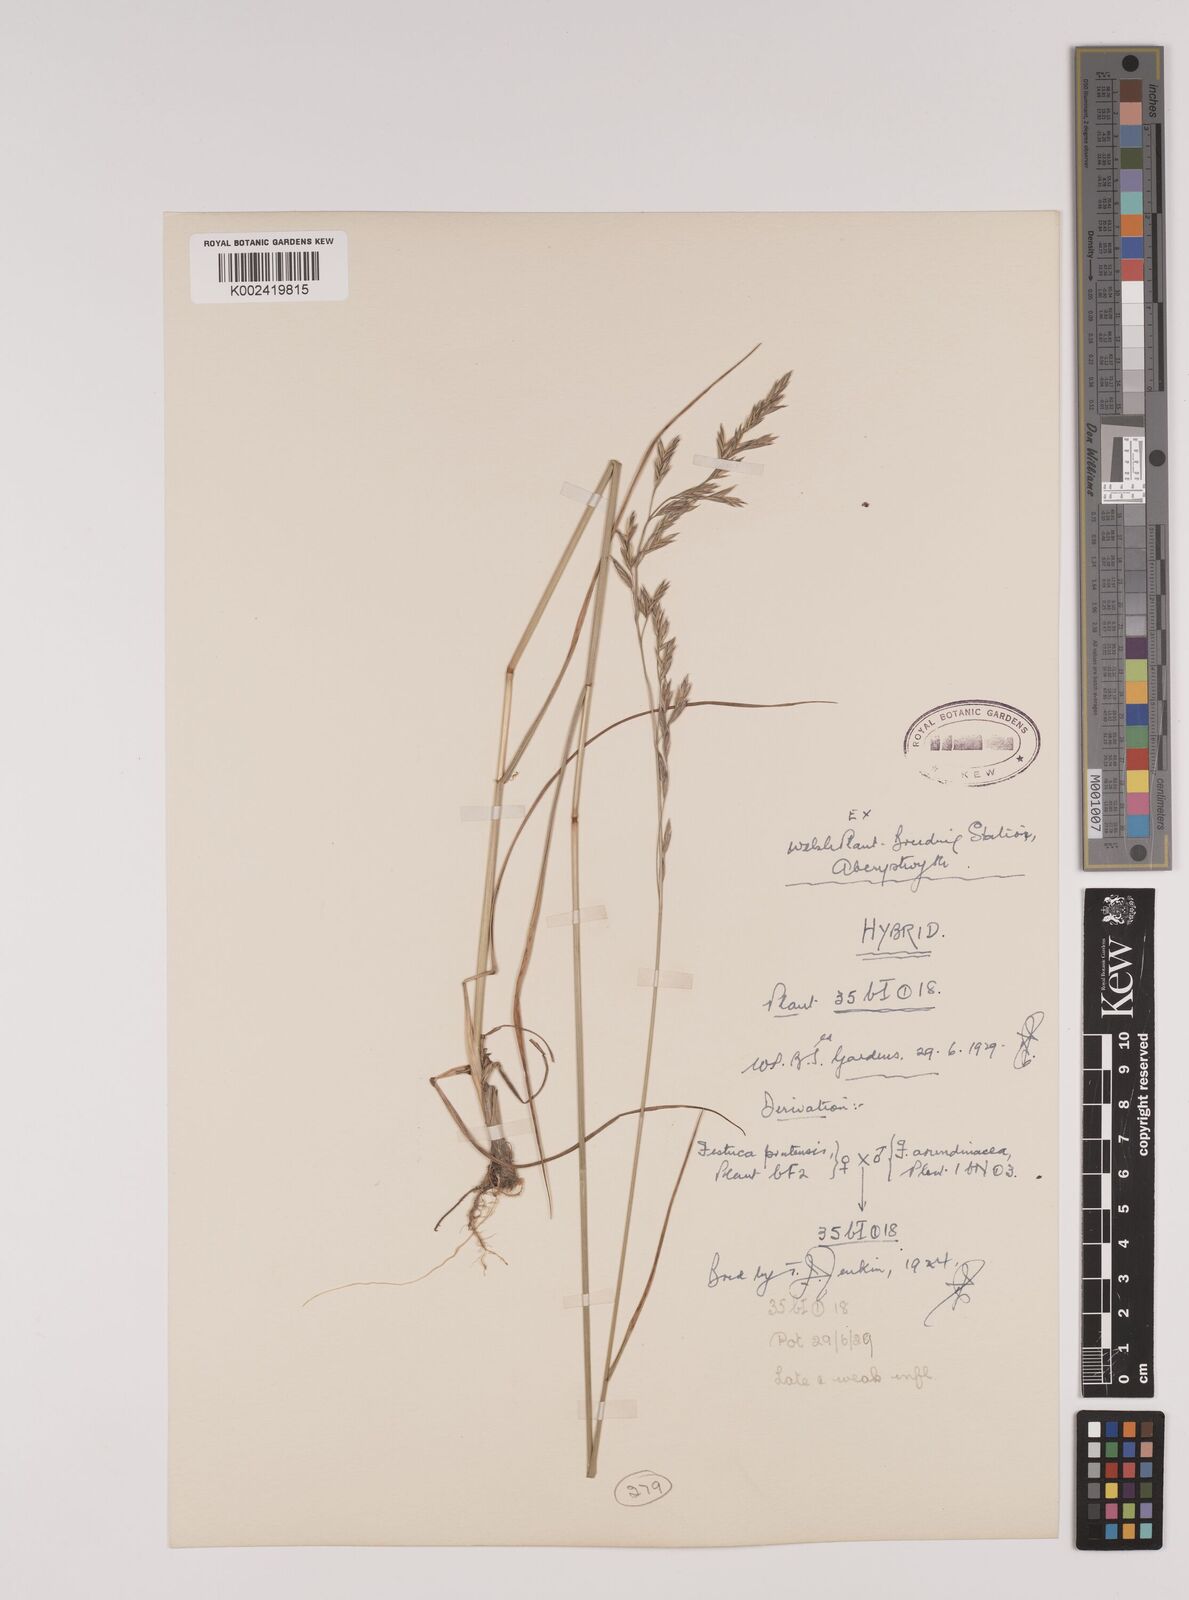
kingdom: Plantae
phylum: Tracheophyta
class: Liliopsida
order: Poales
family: Poaceae
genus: Festuca
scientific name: Festuca rubra
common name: Red fescue
